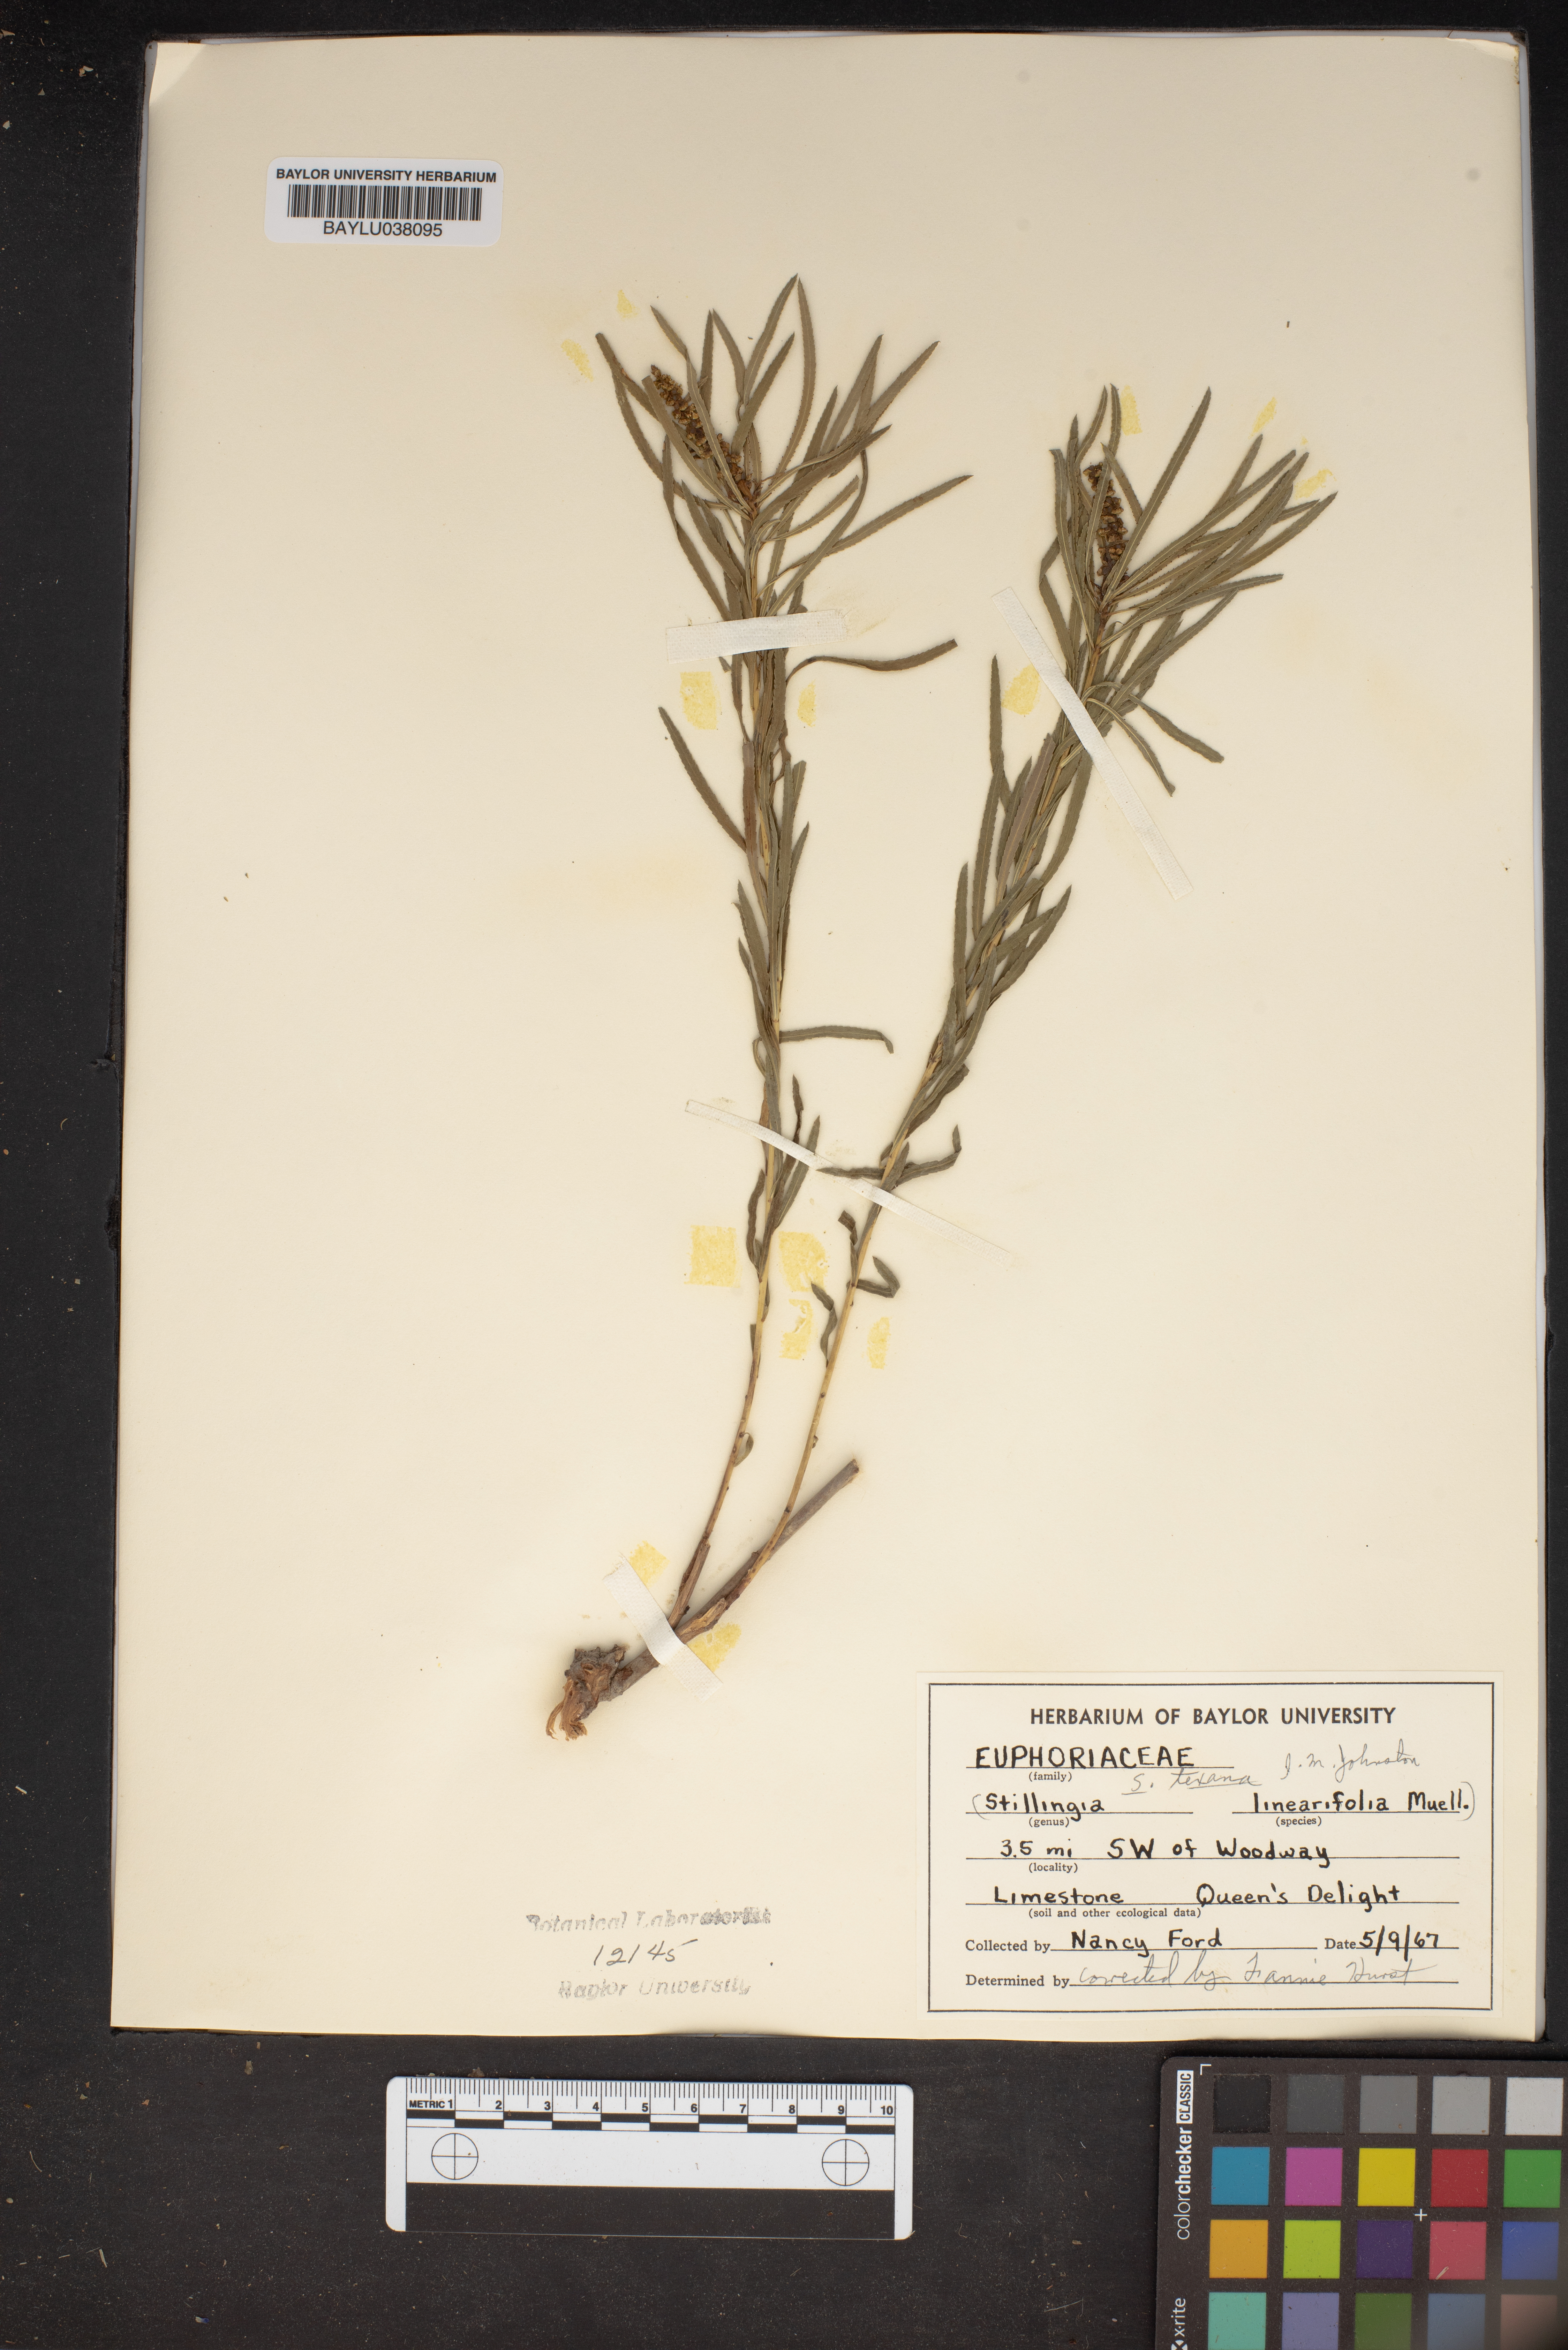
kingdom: Plantae
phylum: Tracheophyta
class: Magnoliopsida
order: Malpighiales
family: Euphorbiaceae
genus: Stillingia
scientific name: Stillingia linearifolia
